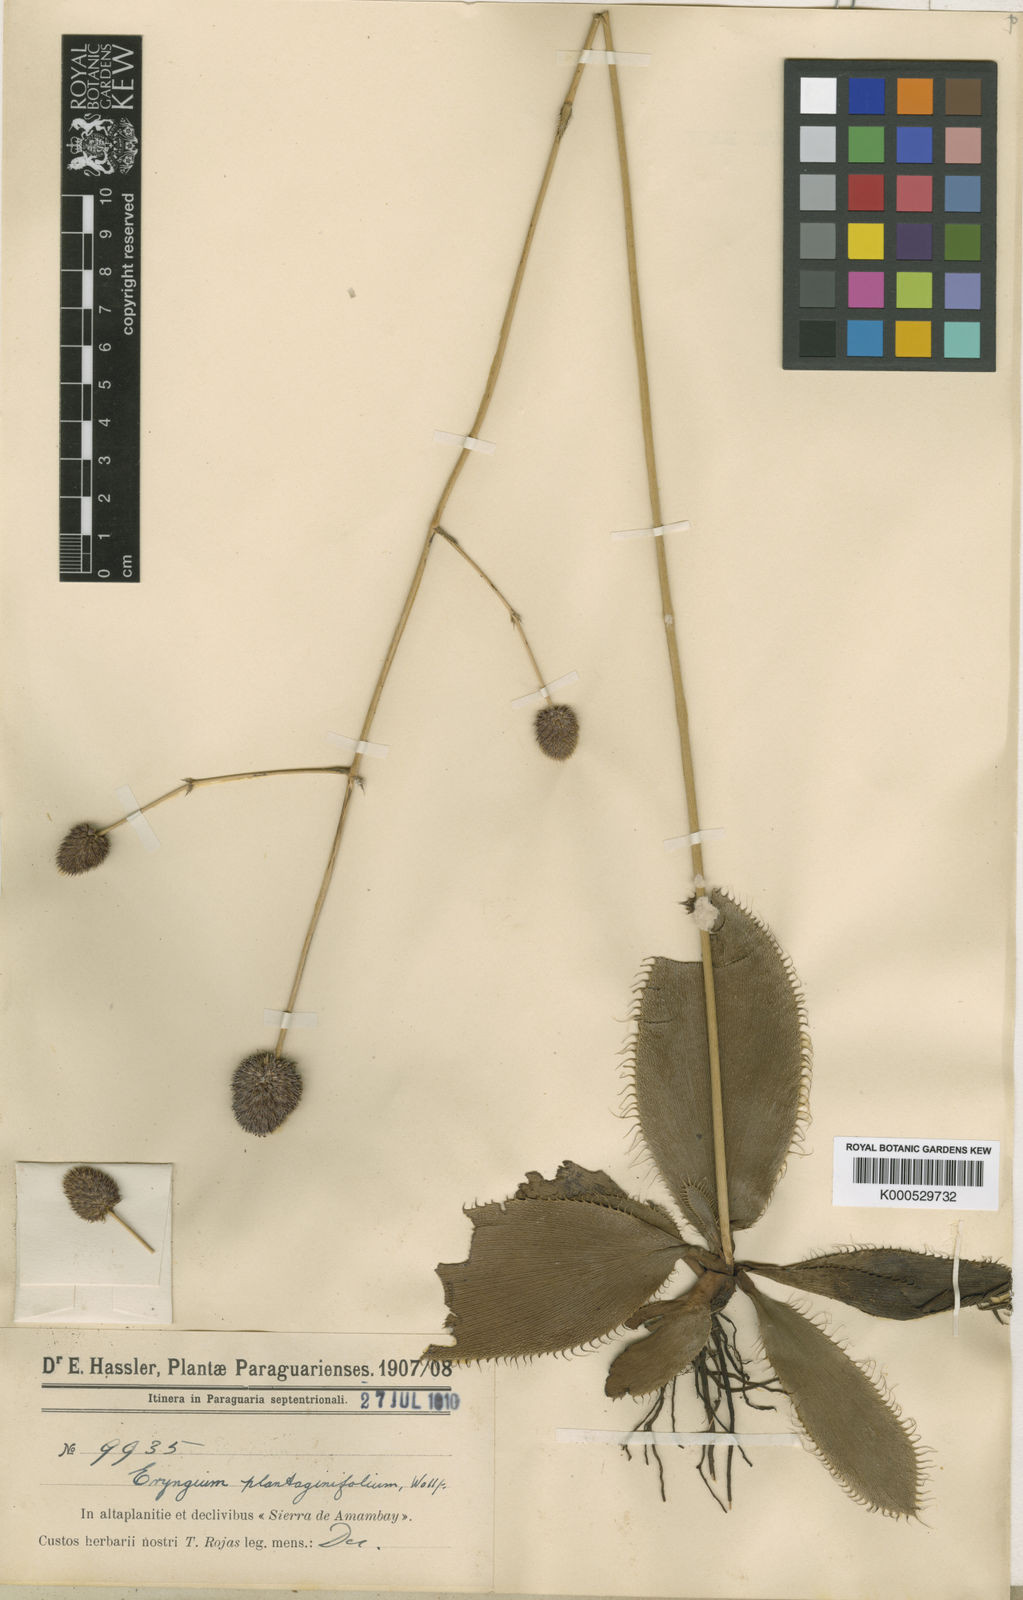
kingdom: Plantae
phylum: Tracheophyta
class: Magnoliopsida
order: Apiales
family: Apiaceae
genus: Eryngium
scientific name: Eryngium plantaginifolium
